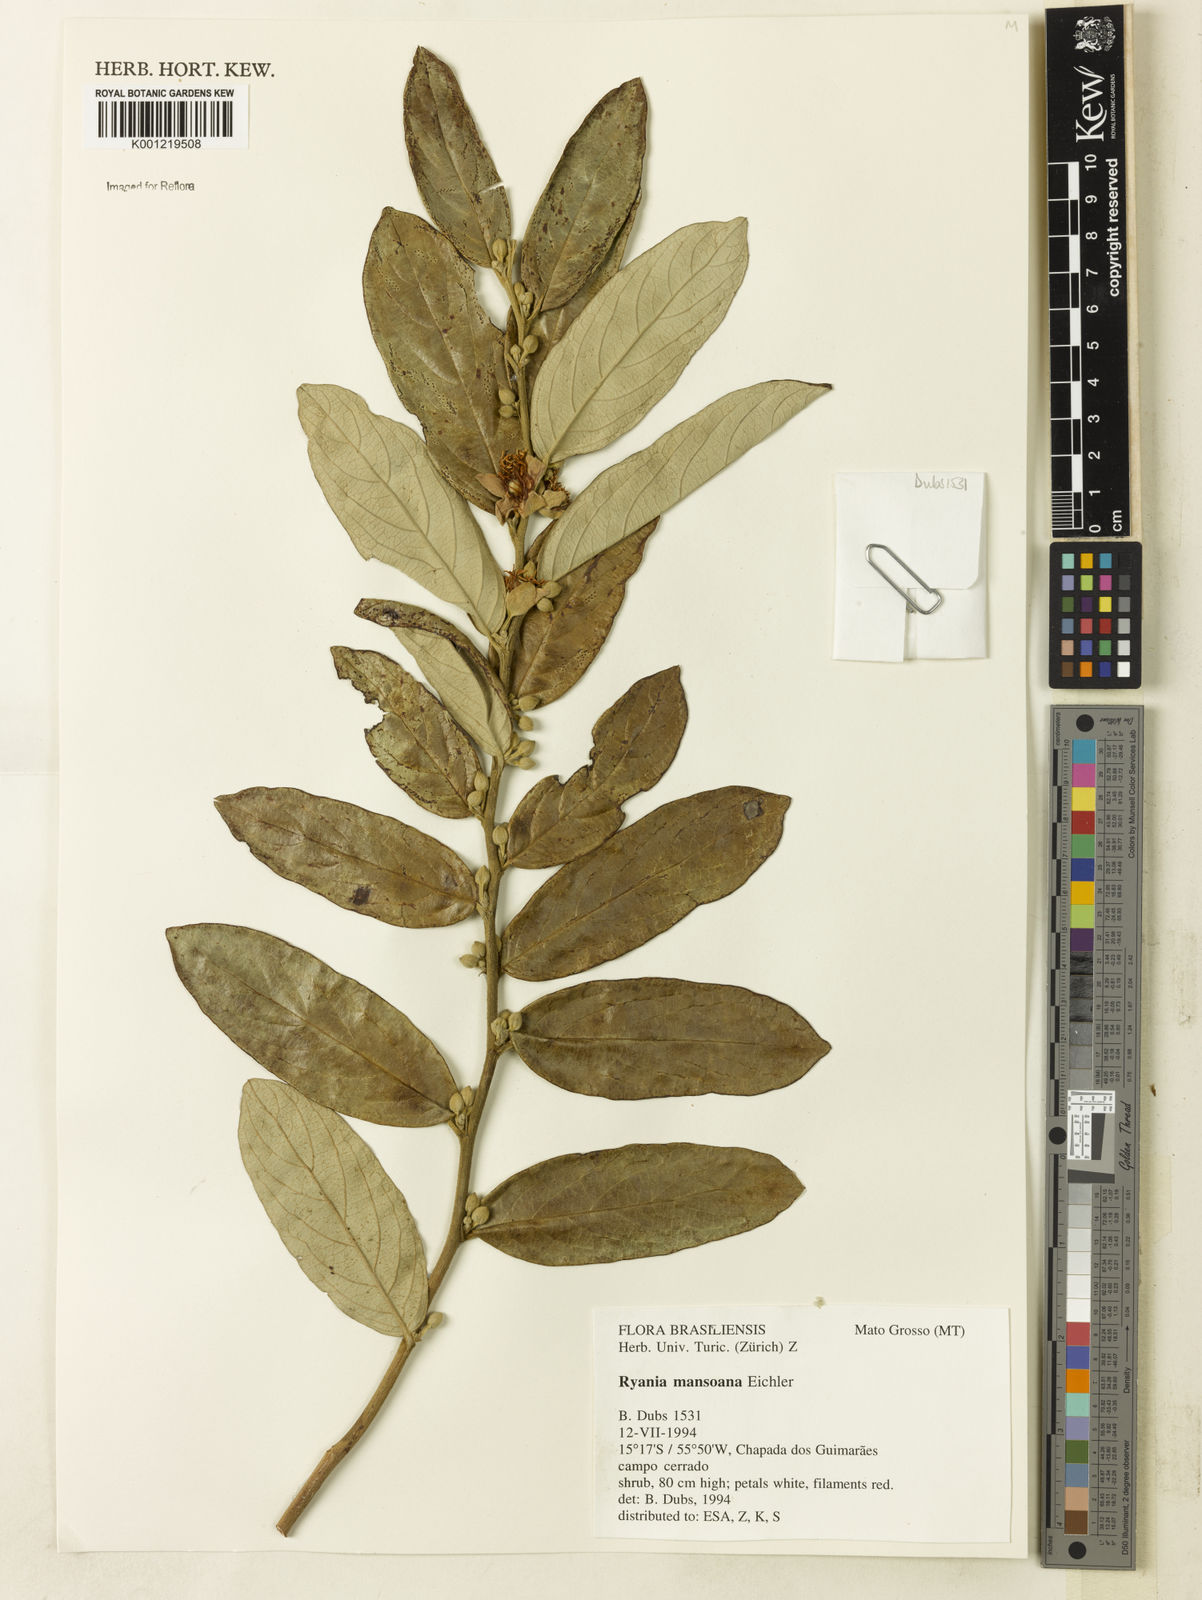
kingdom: Plantae
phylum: Tracheophyta
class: Magnoliopsida
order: Malpighiales
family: Salicaceae
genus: Ryania
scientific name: Ryania mansoana
